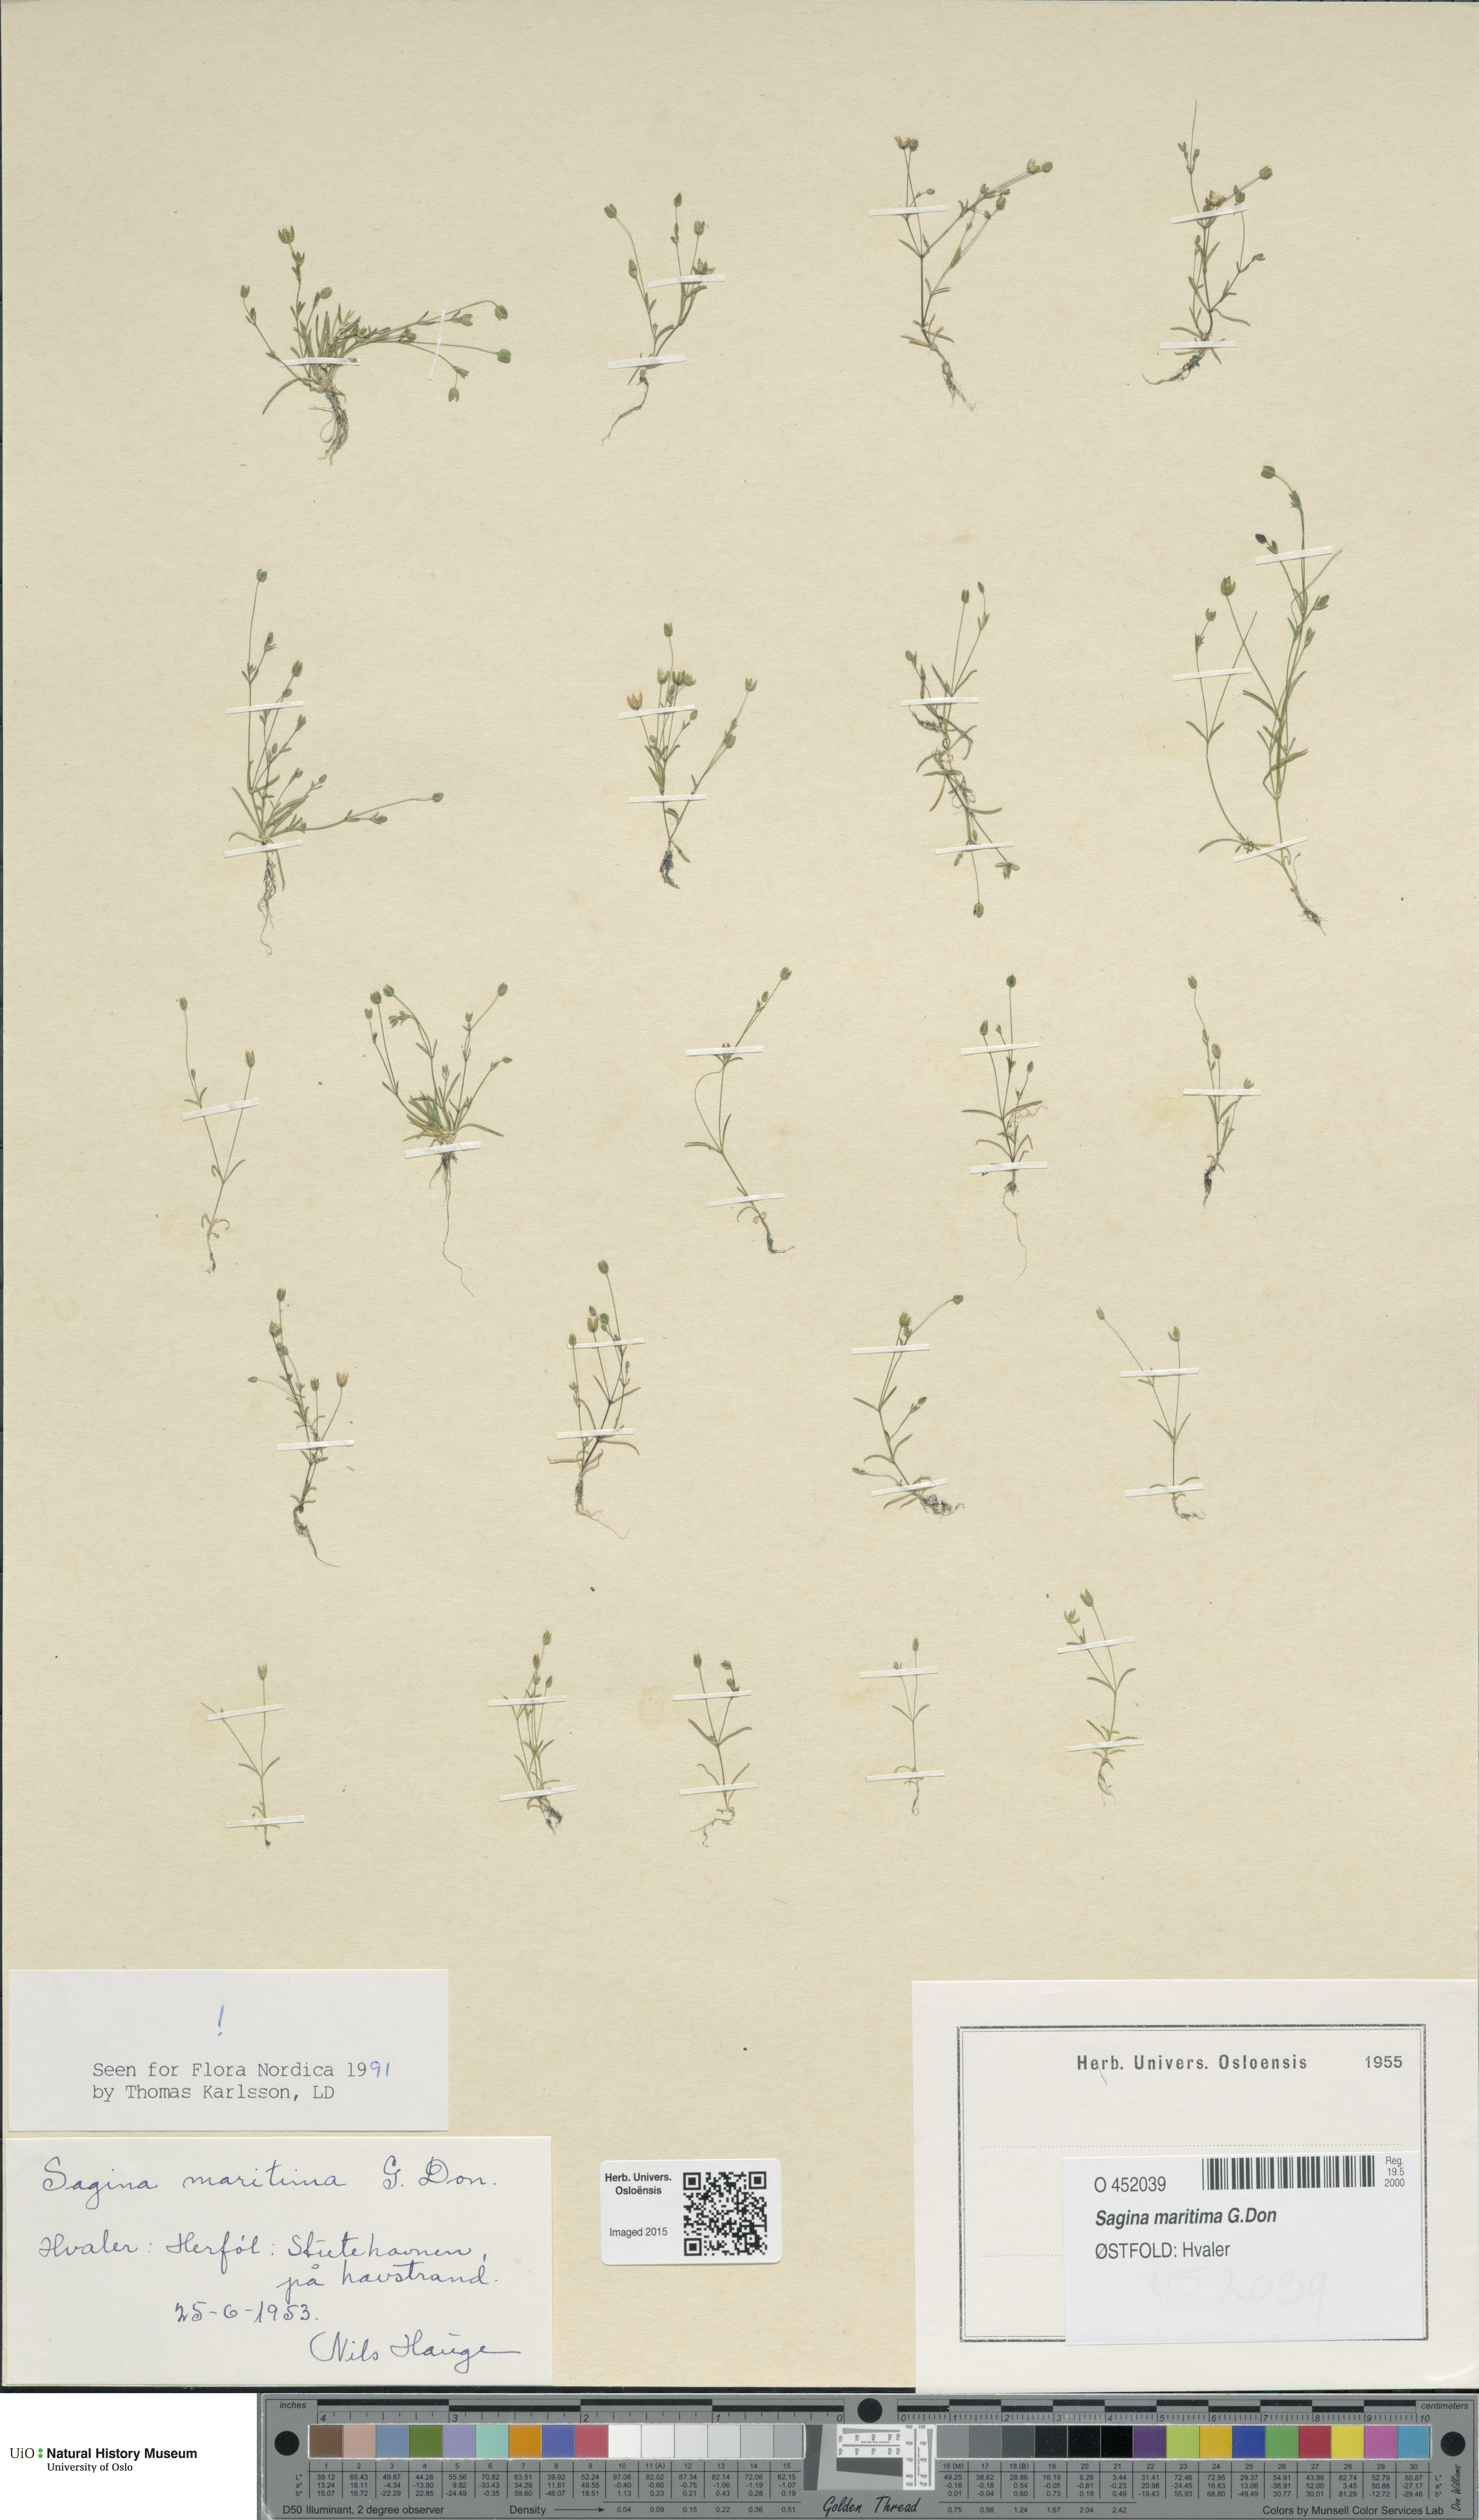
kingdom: Plantae
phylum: Tracheophyta
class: Magnoliopsida
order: Caryophyllales
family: Caryophyllaceae
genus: Sagina
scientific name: Sagina maritima
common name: Sea pearlwort
